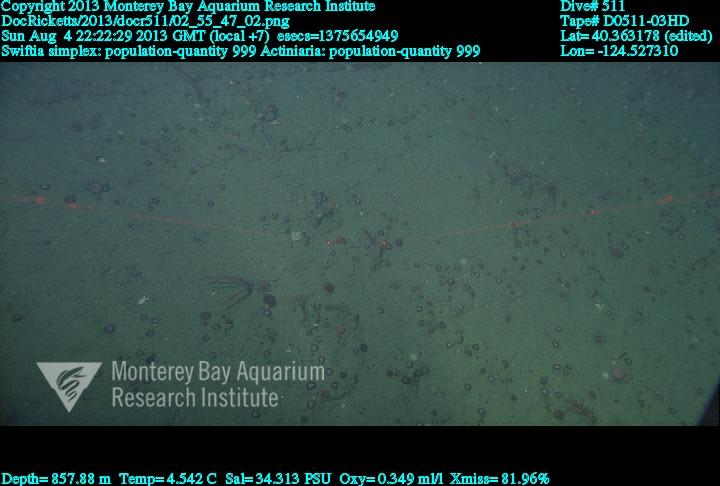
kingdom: Animalia
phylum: Cnidaria
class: Anthozoa
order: Malacalcyonacea
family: Gorgoniidae
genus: Callistephanus
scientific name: Callistephanus simplex
